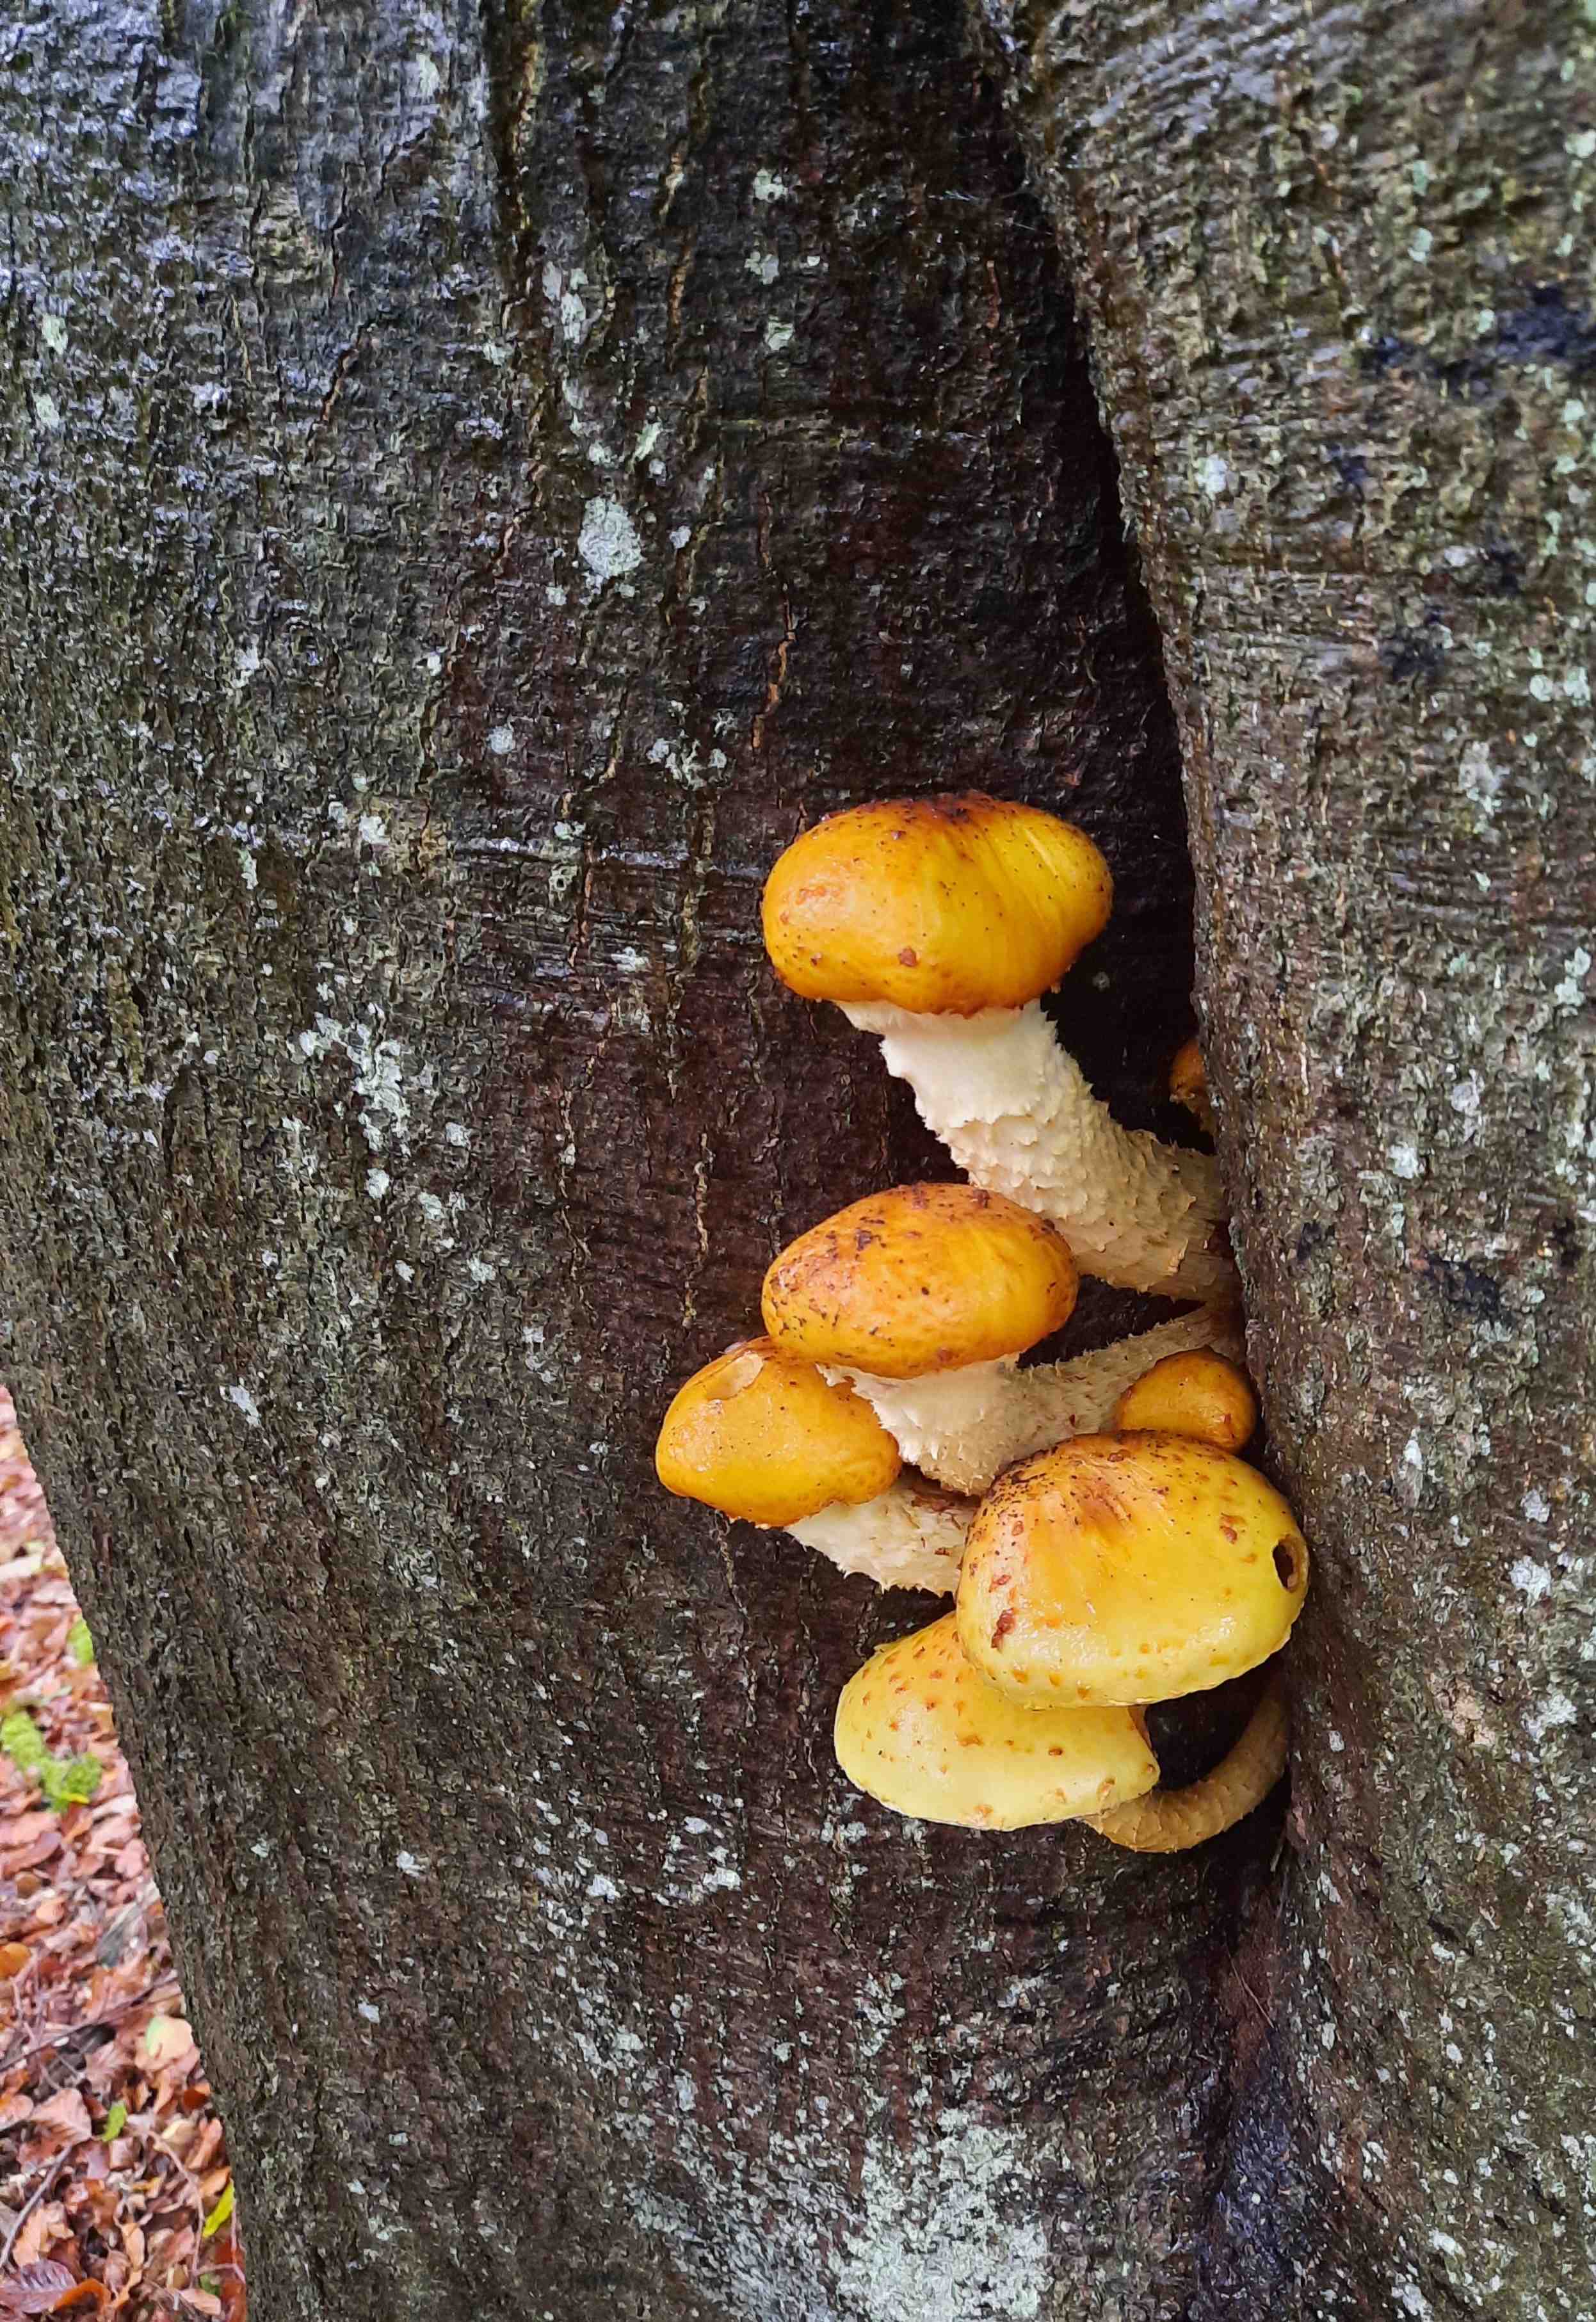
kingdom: Fungi
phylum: Basidiomycota
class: Agaricomycetes
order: Agaricales
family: Strophariaceae
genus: Pholiota
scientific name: Pholiota adiposa
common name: højtsiddende skælhat
